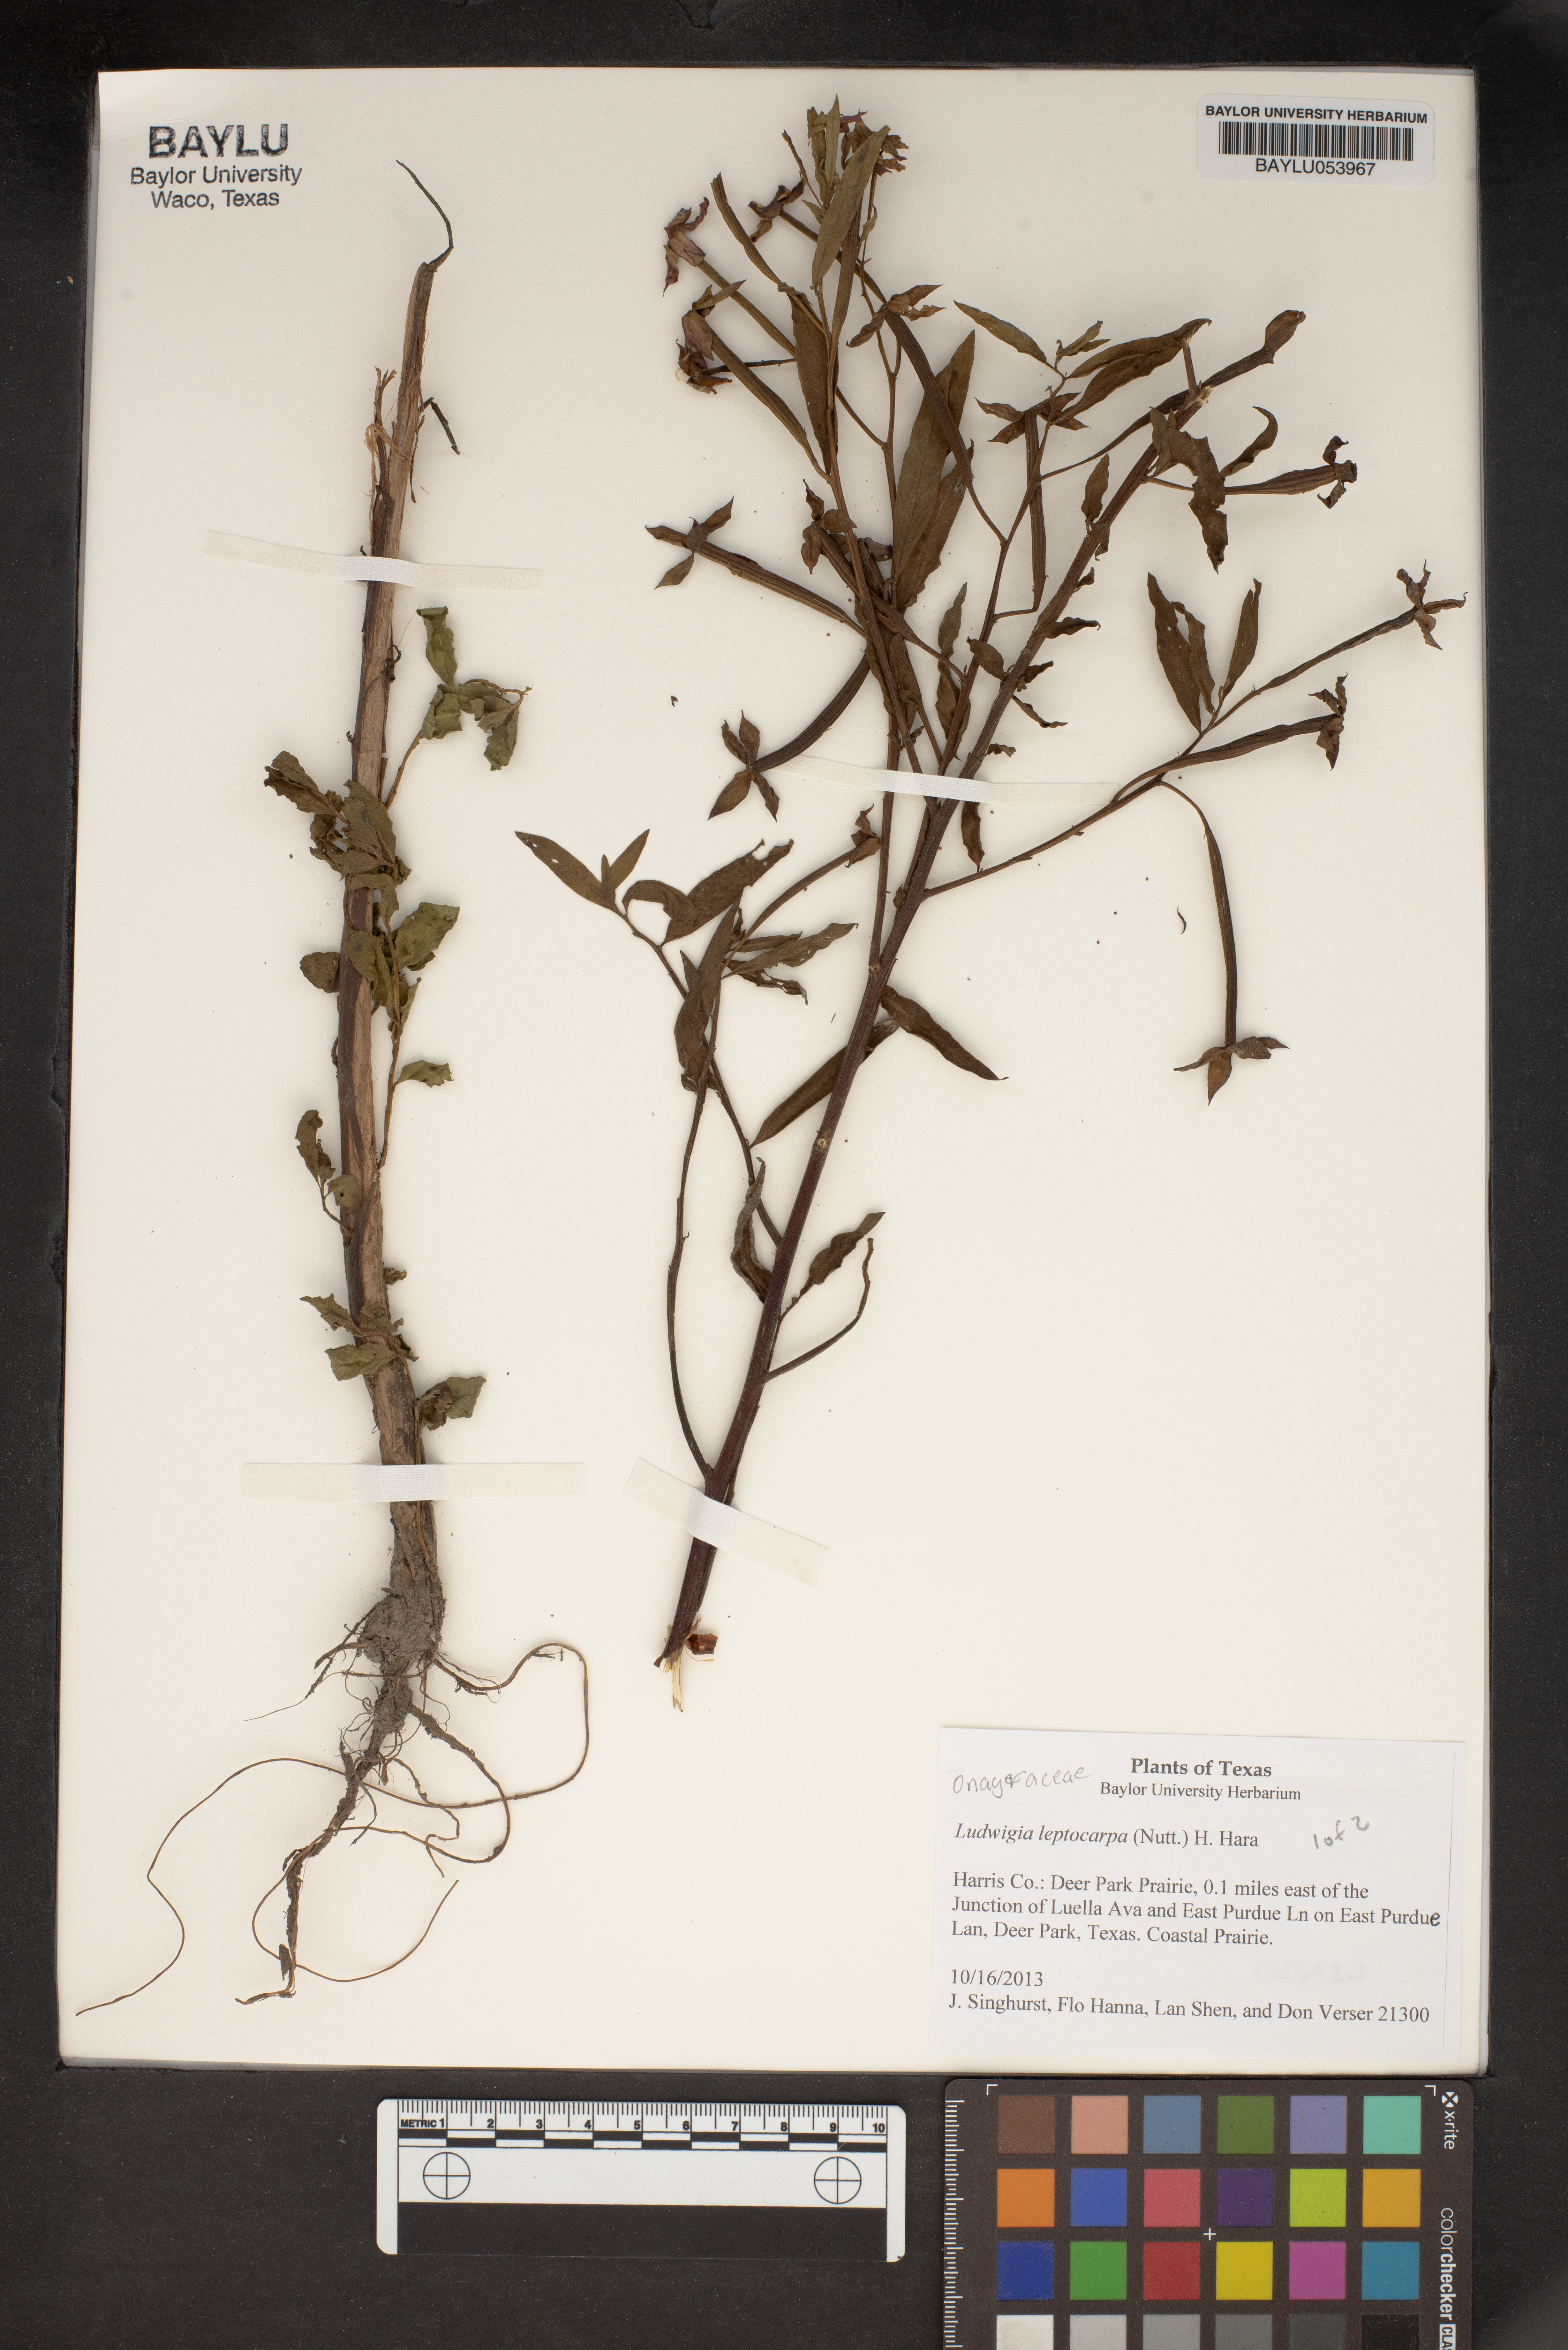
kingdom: Plantae
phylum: Tracheophyta
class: Magnoliopsida
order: Myrtales
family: Onagraceae
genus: Ludwigia
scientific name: Ludwigia leptocarpa
